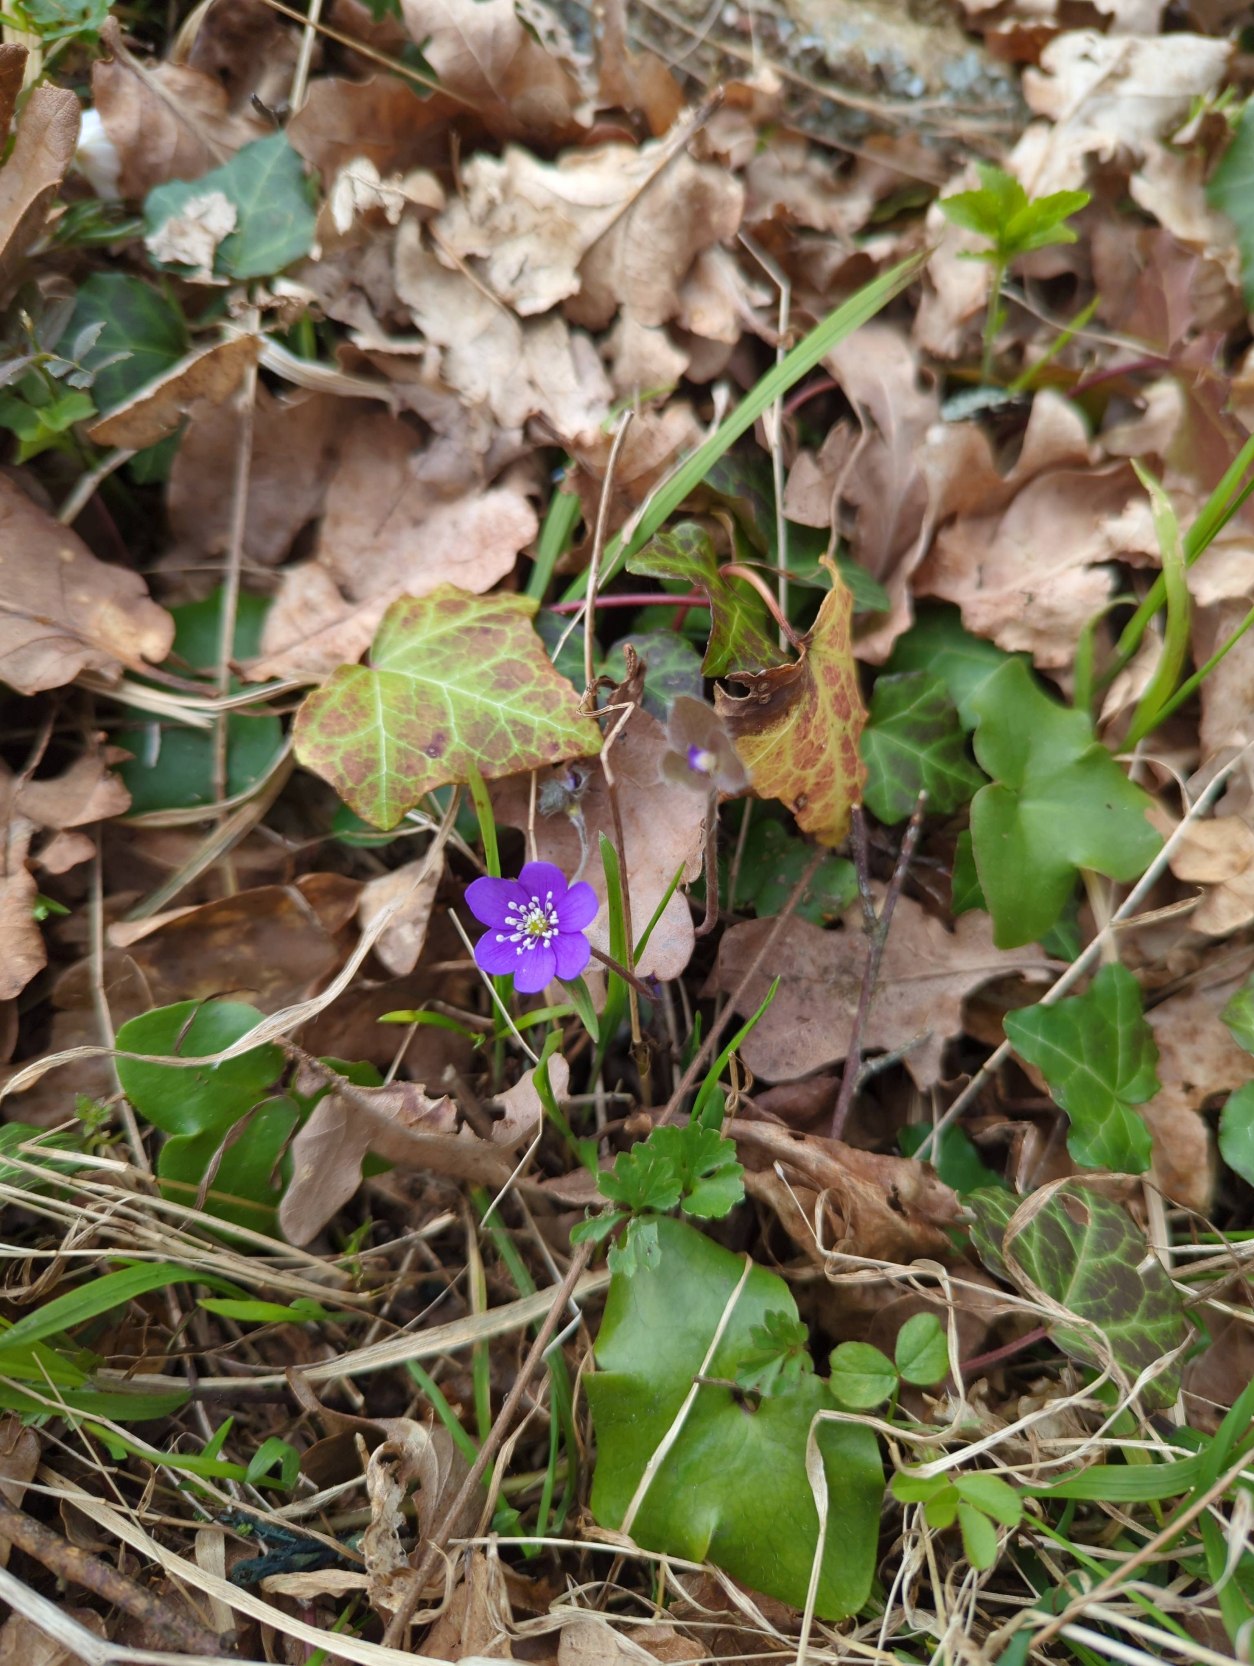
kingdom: Plantae
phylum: Tracheophyta
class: Magnoliopsida
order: Ranunculales
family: Ranunculaceae
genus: Hepatica
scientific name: Hepatica nobilis
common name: Blå anemone
